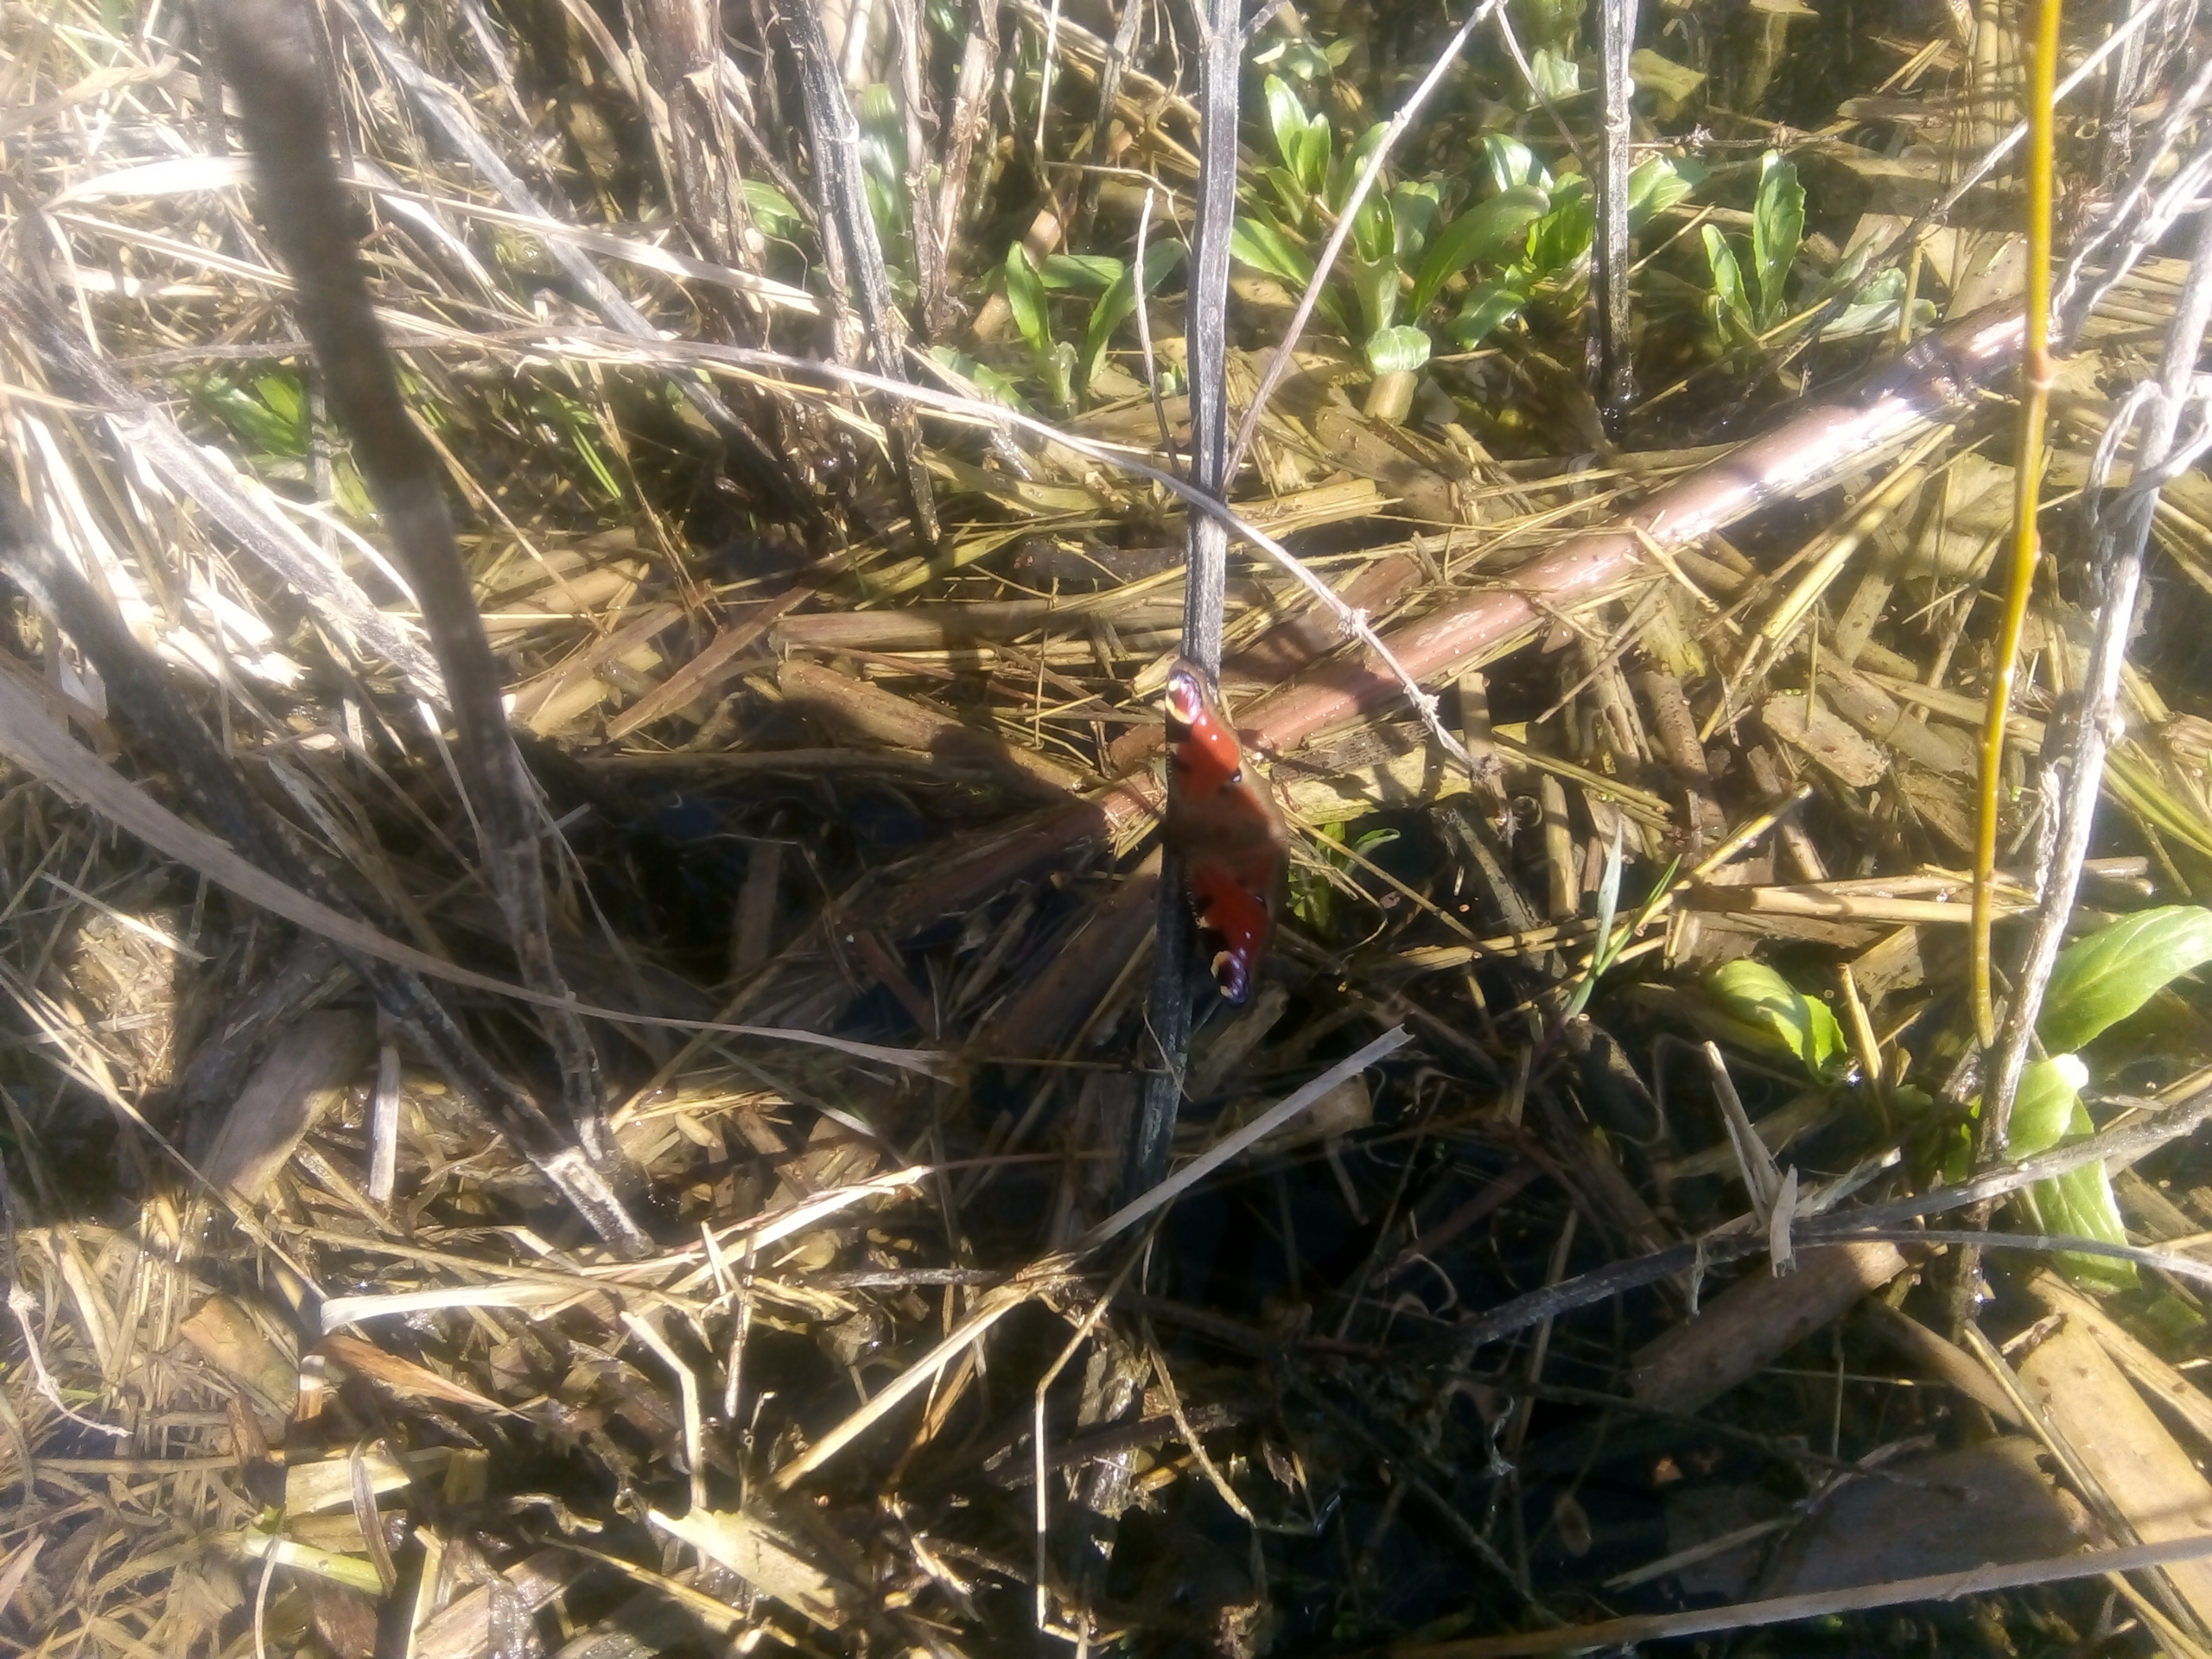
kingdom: Animalia
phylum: Arthropoda
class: Insecta
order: Lepidoptera
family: Nymphalidae
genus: Aglais
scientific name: Aglais io
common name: Dagpåfugleøje
